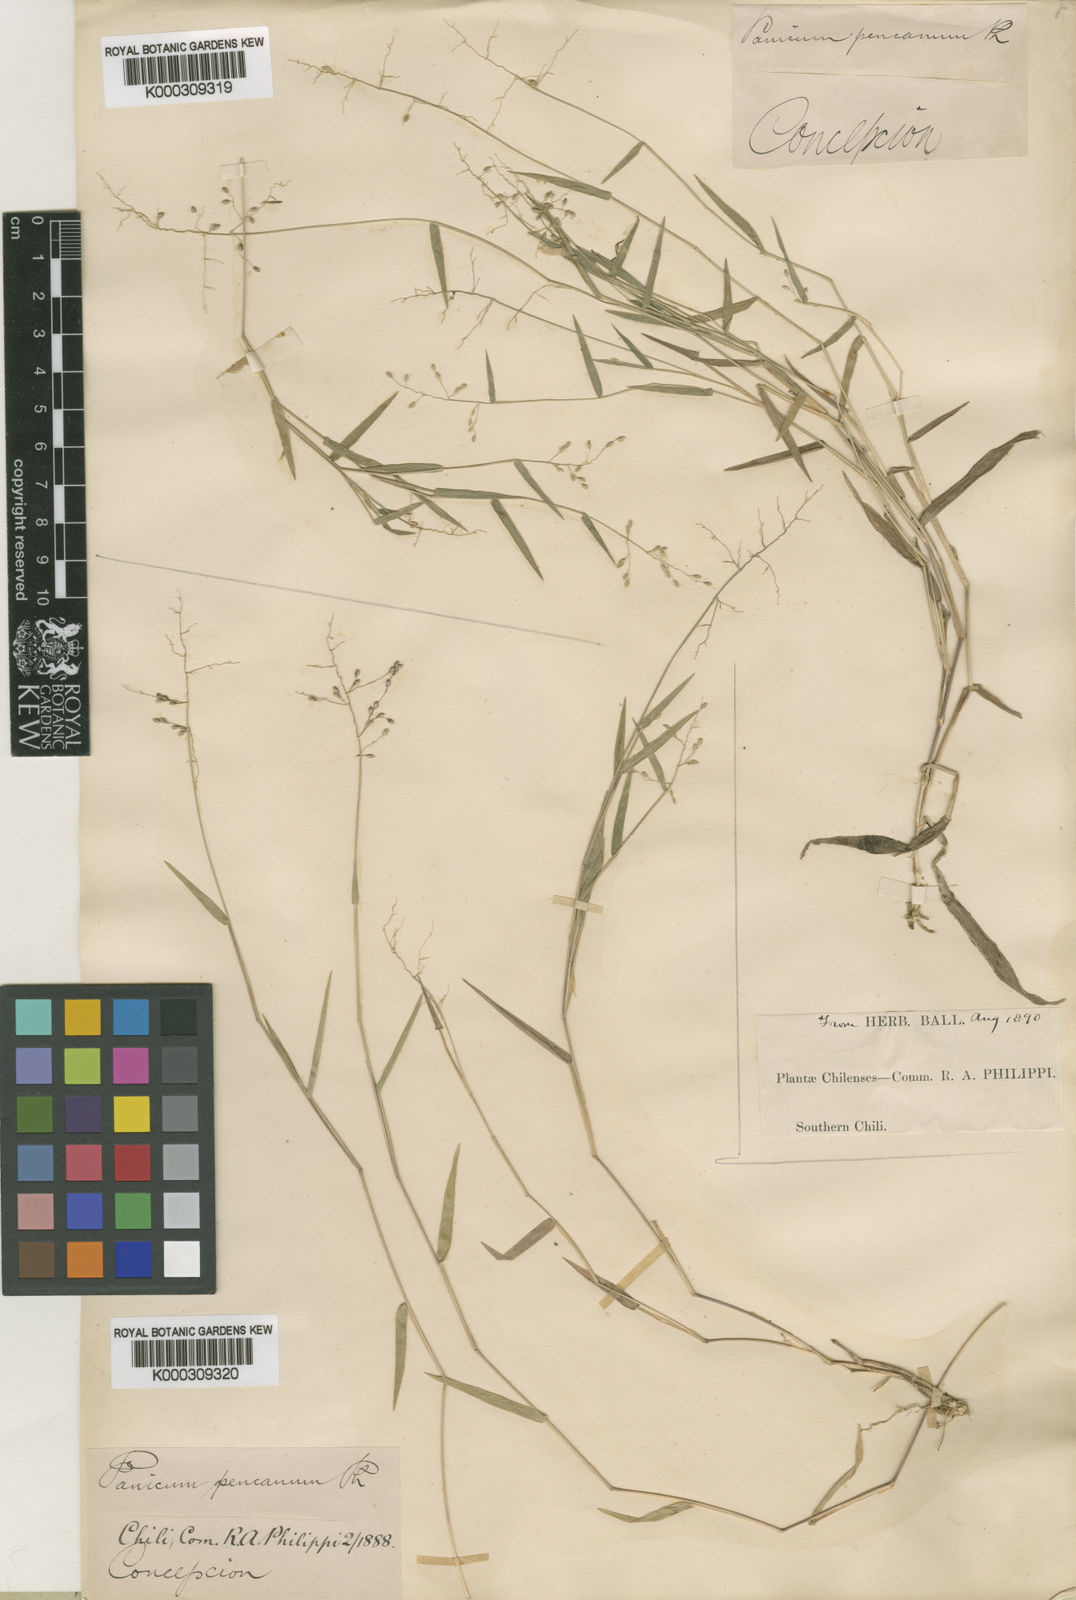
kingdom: Plantae
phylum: Tracheophyta
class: Liliopsida
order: Poales
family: Poaceae
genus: Dichanthelium
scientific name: Dichanthelium sabulorum
